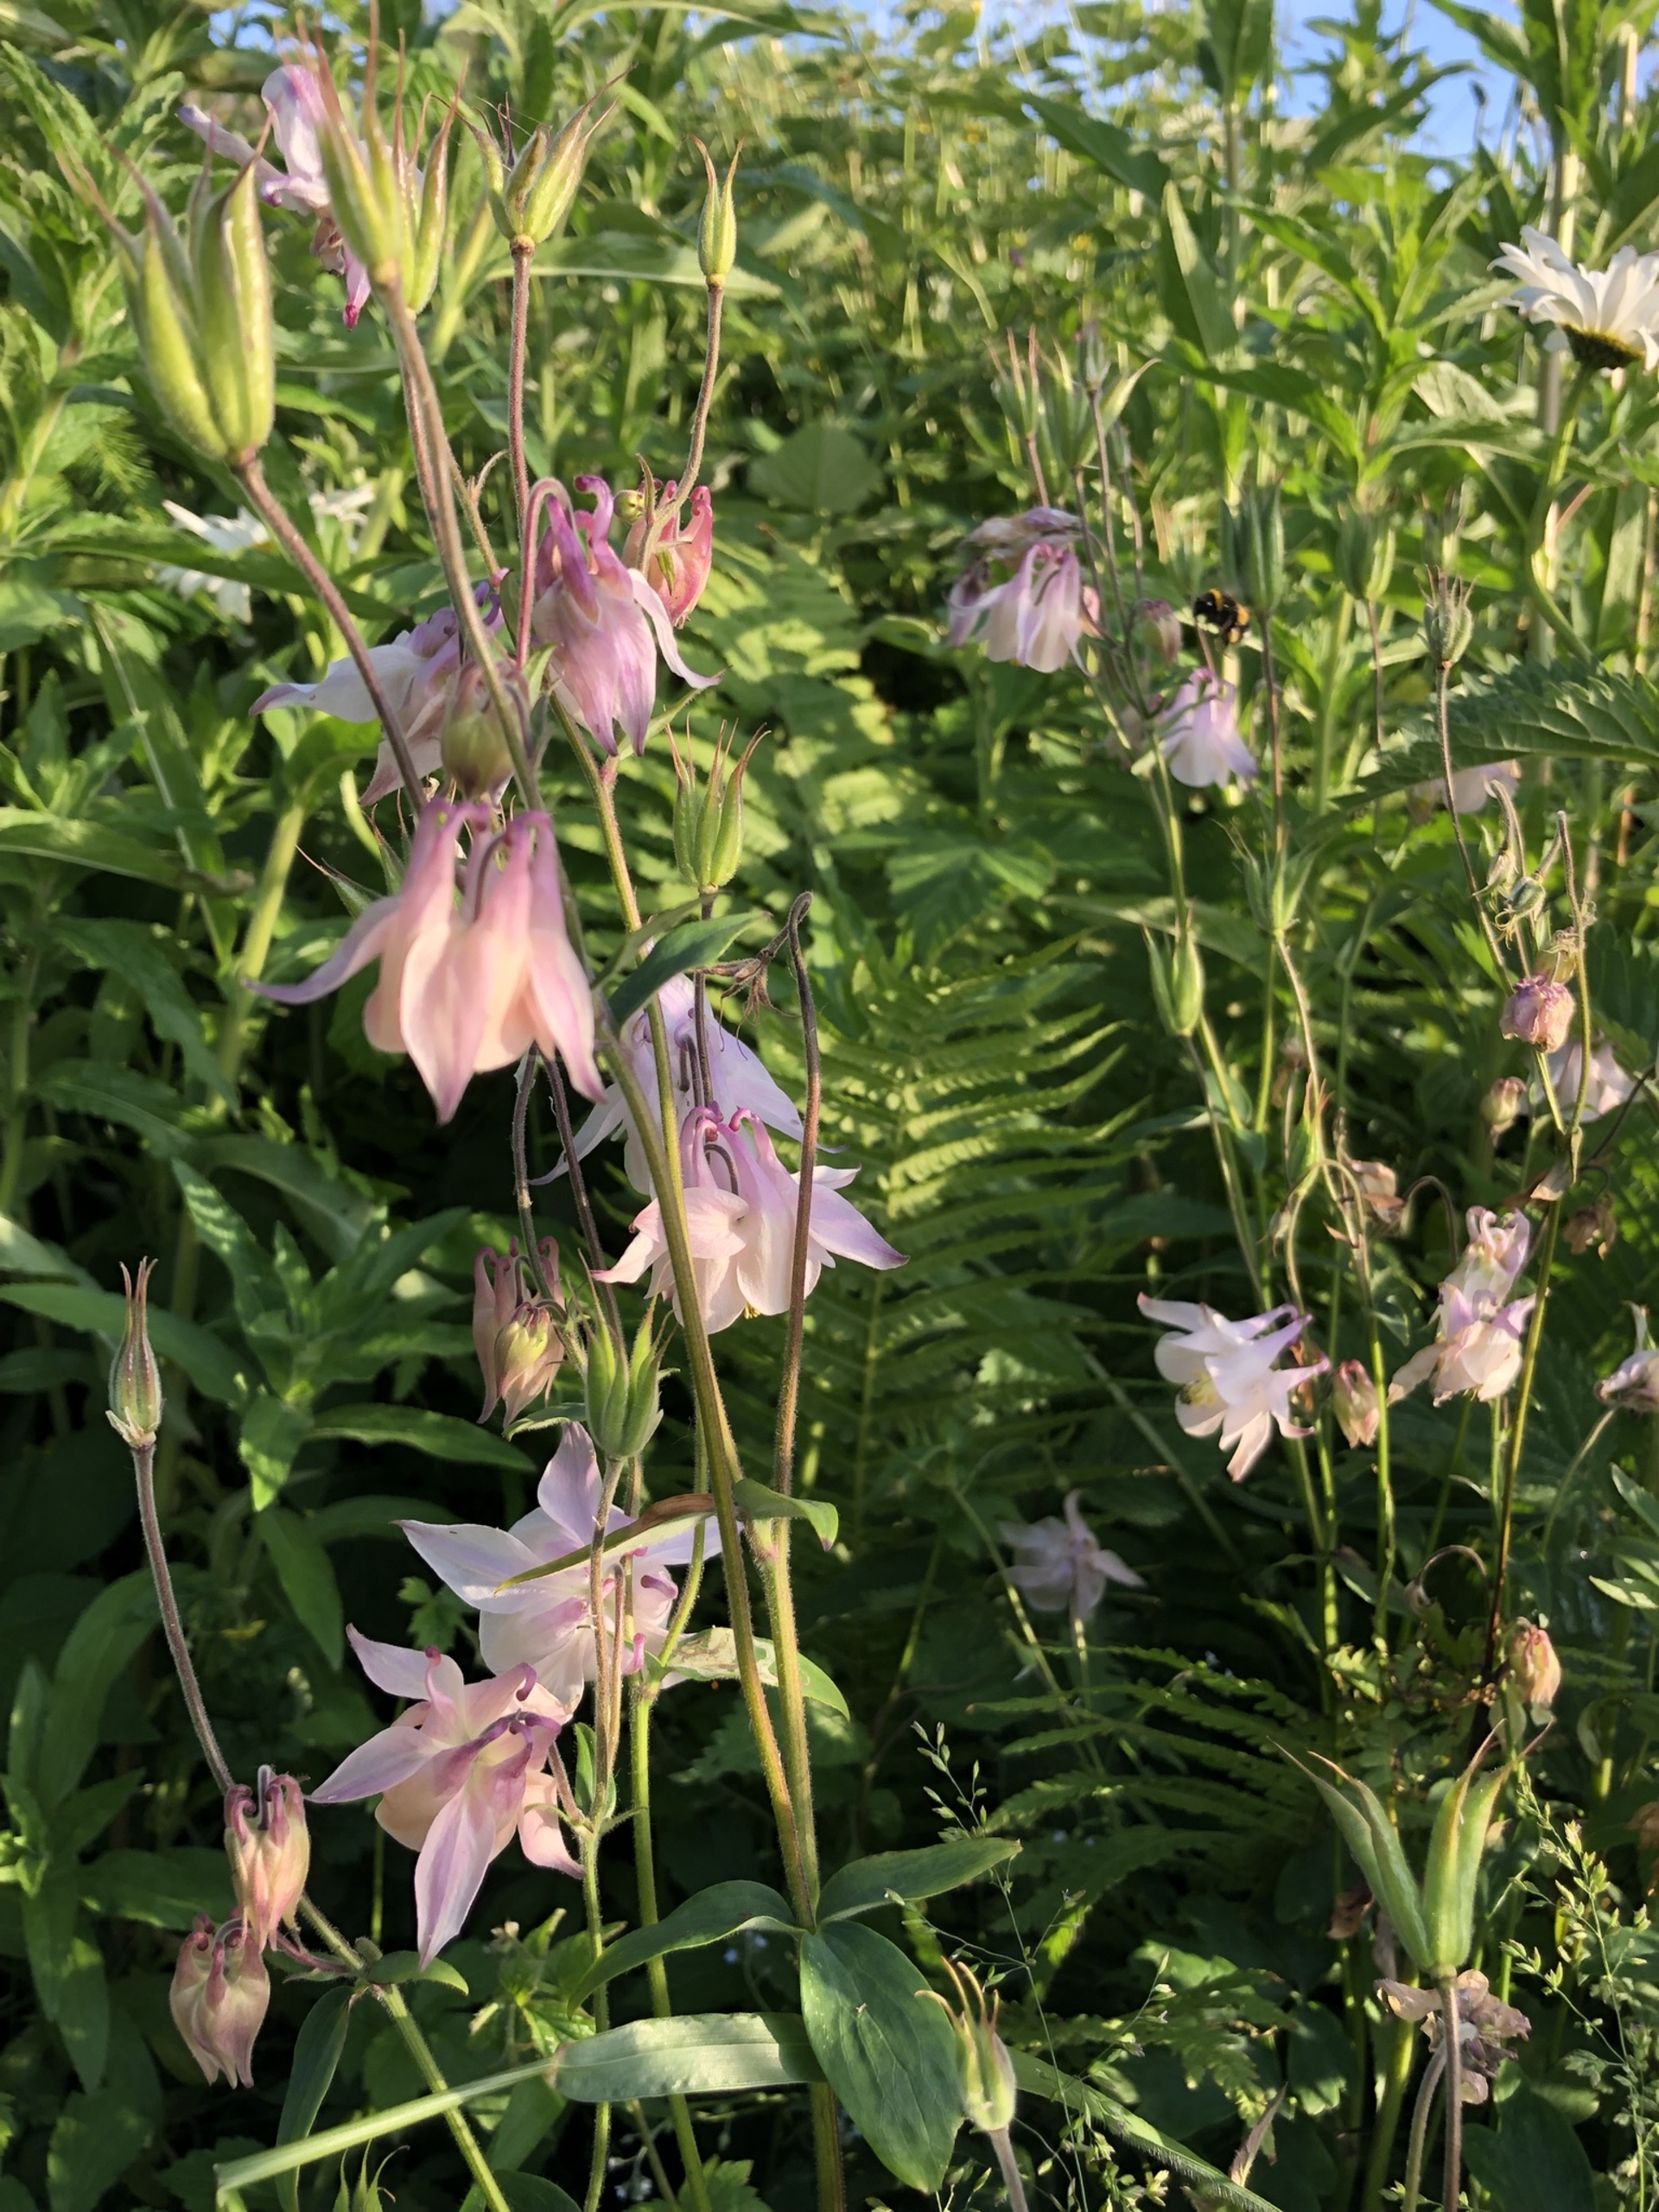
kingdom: Plantae
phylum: Tracheophyta
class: Magnoliopsida
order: Ranunculales
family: Ranunculaceae
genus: Aquilegia
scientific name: Aquilegia vulgaris
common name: Akeleje
